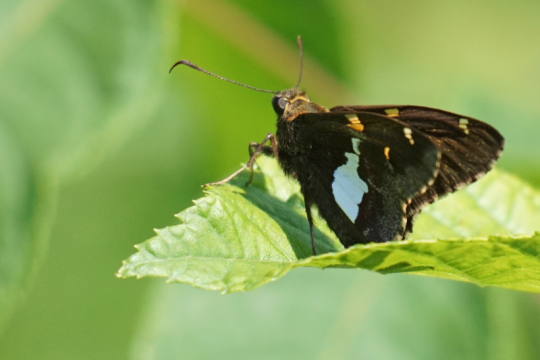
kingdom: Animalia
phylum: Arthropoda
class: Insecta
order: Lepidoptera
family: Hesperiidae
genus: Epargyreus
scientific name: Epargyreus clarus
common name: Silver-spotted Skipper
